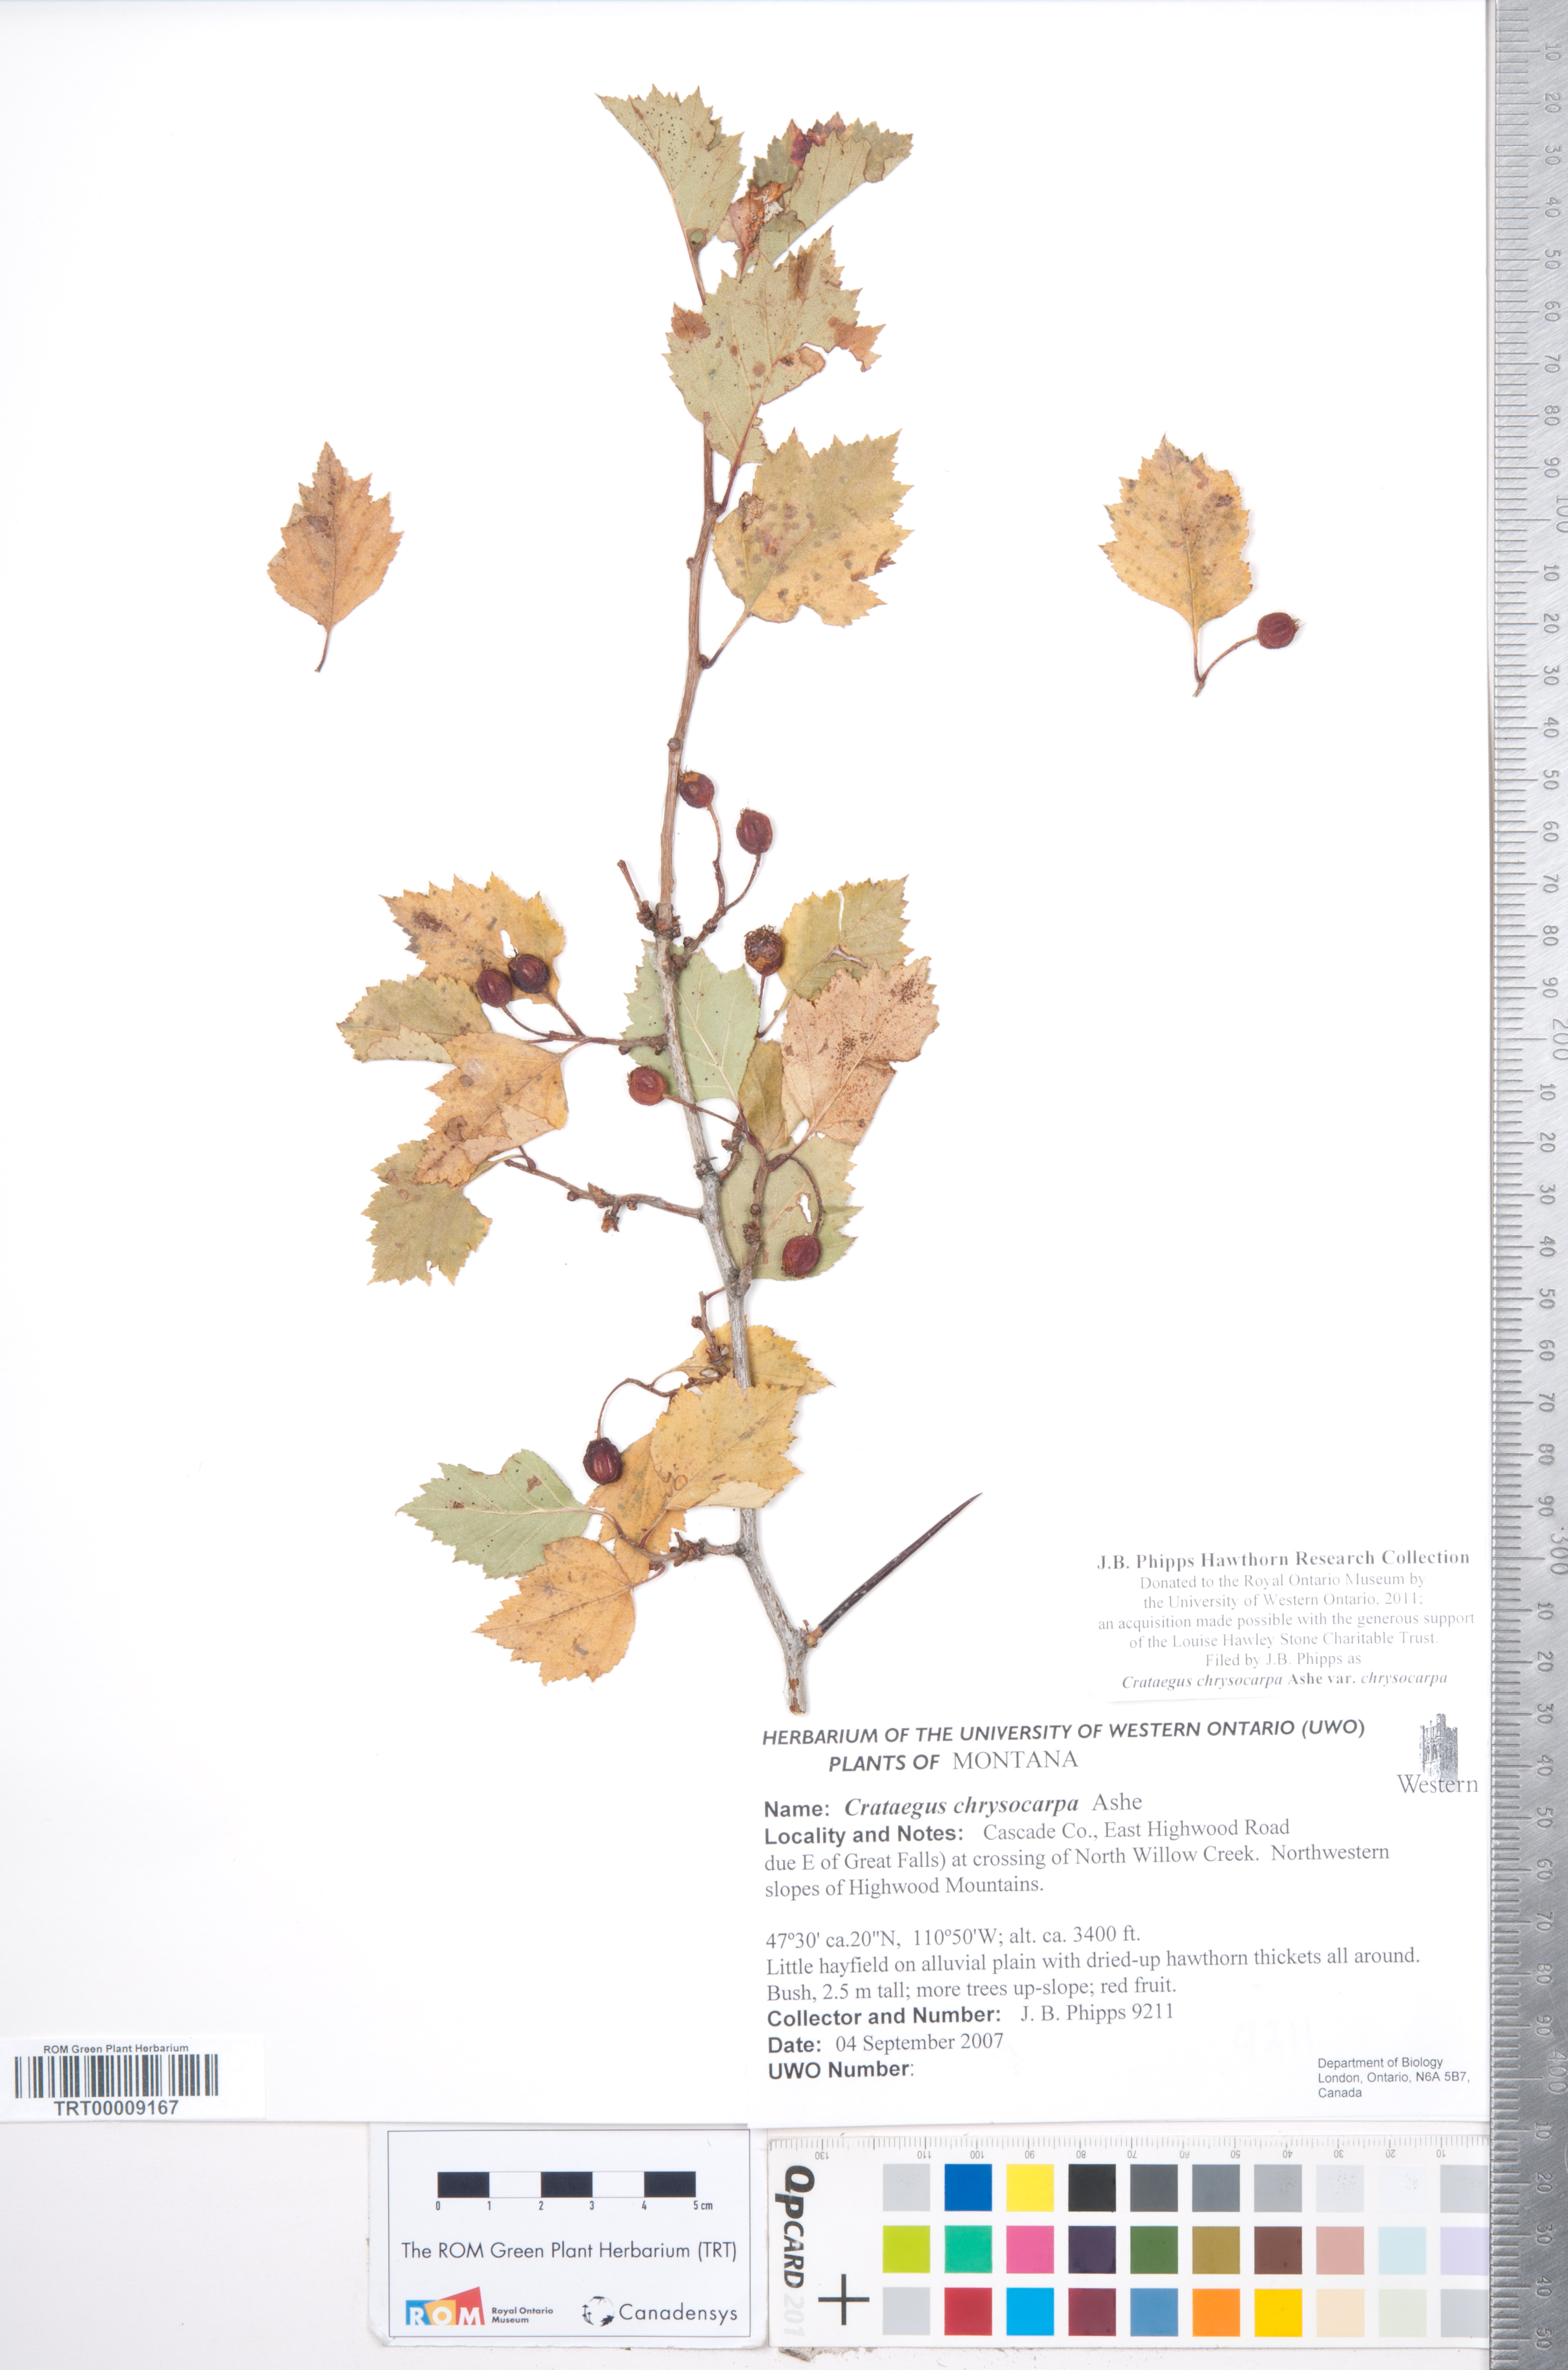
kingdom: Plantae
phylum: Tracheophyta
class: Magnoliopsida
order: Rosales
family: Rosaceae
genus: Crataegus
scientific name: Crataegus chrysocarpa
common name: Fire-berry hawthorn
